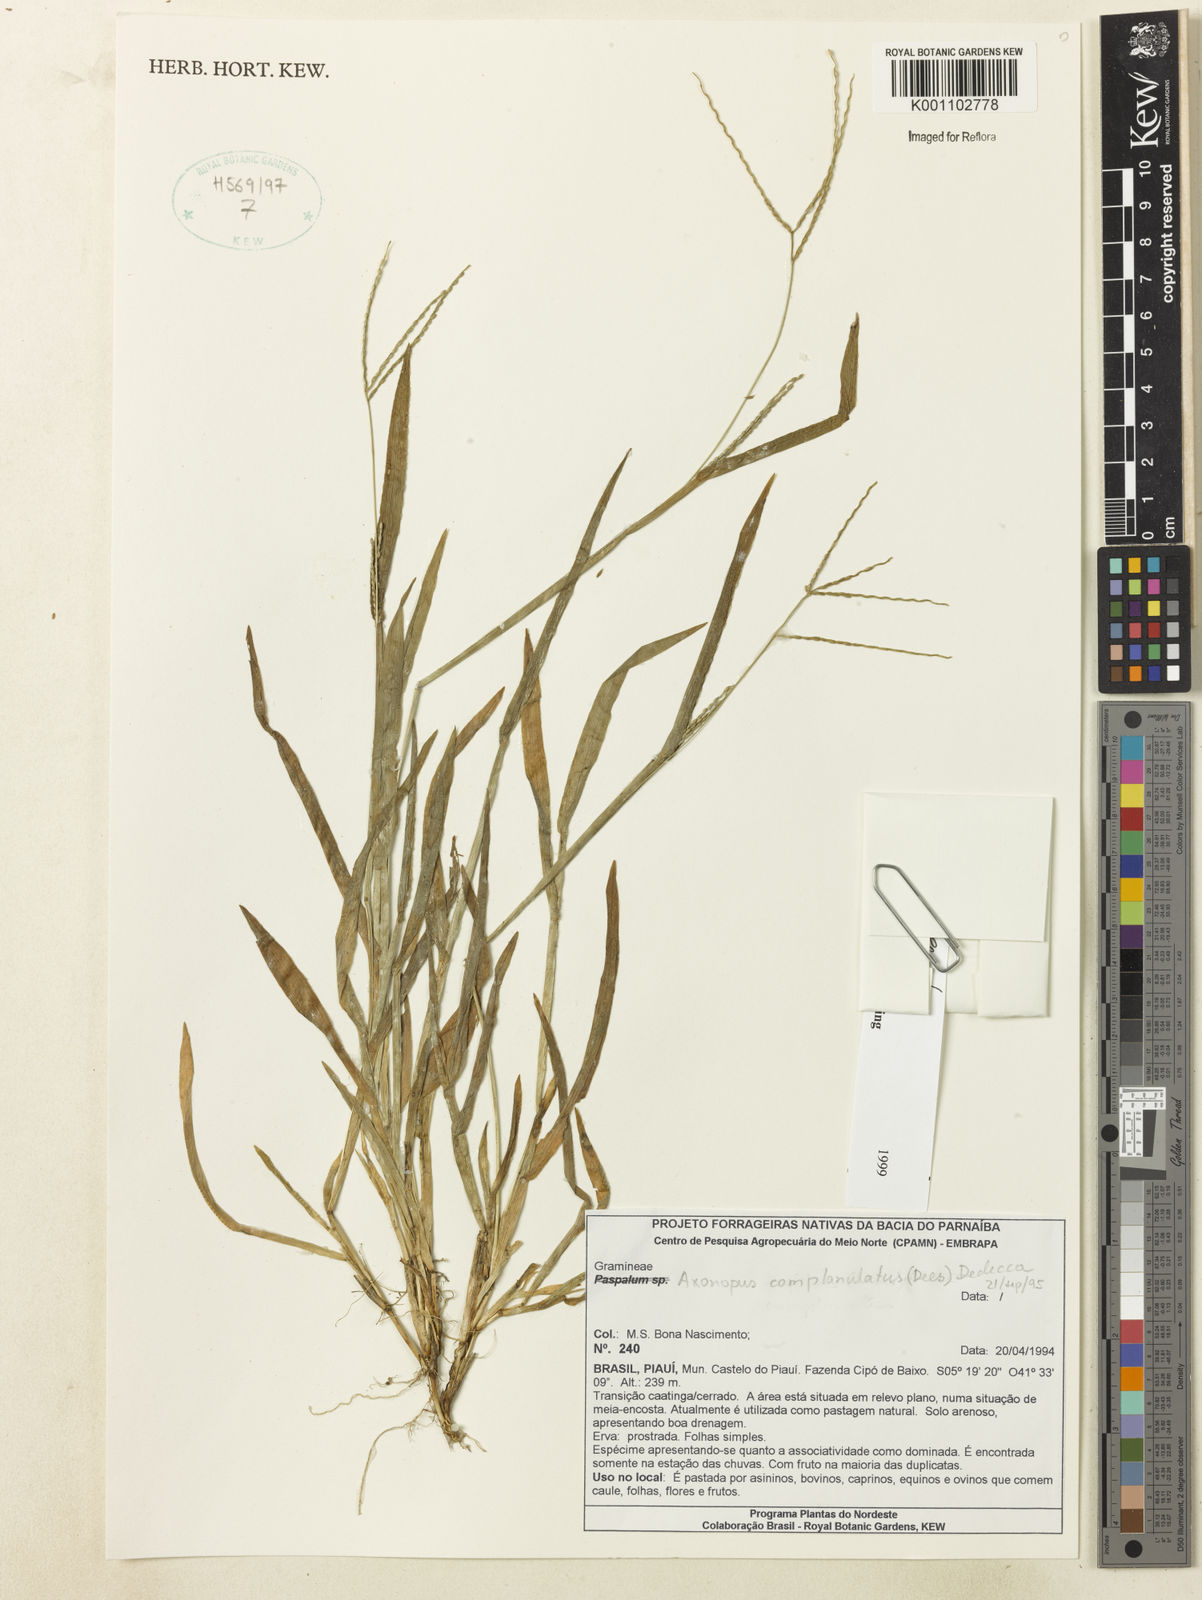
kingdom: Plantae
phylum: Tracheophyta
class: Liliopsida
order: Poales
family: Poaceae
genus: Axonopus
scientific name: Axonopus complanatus
